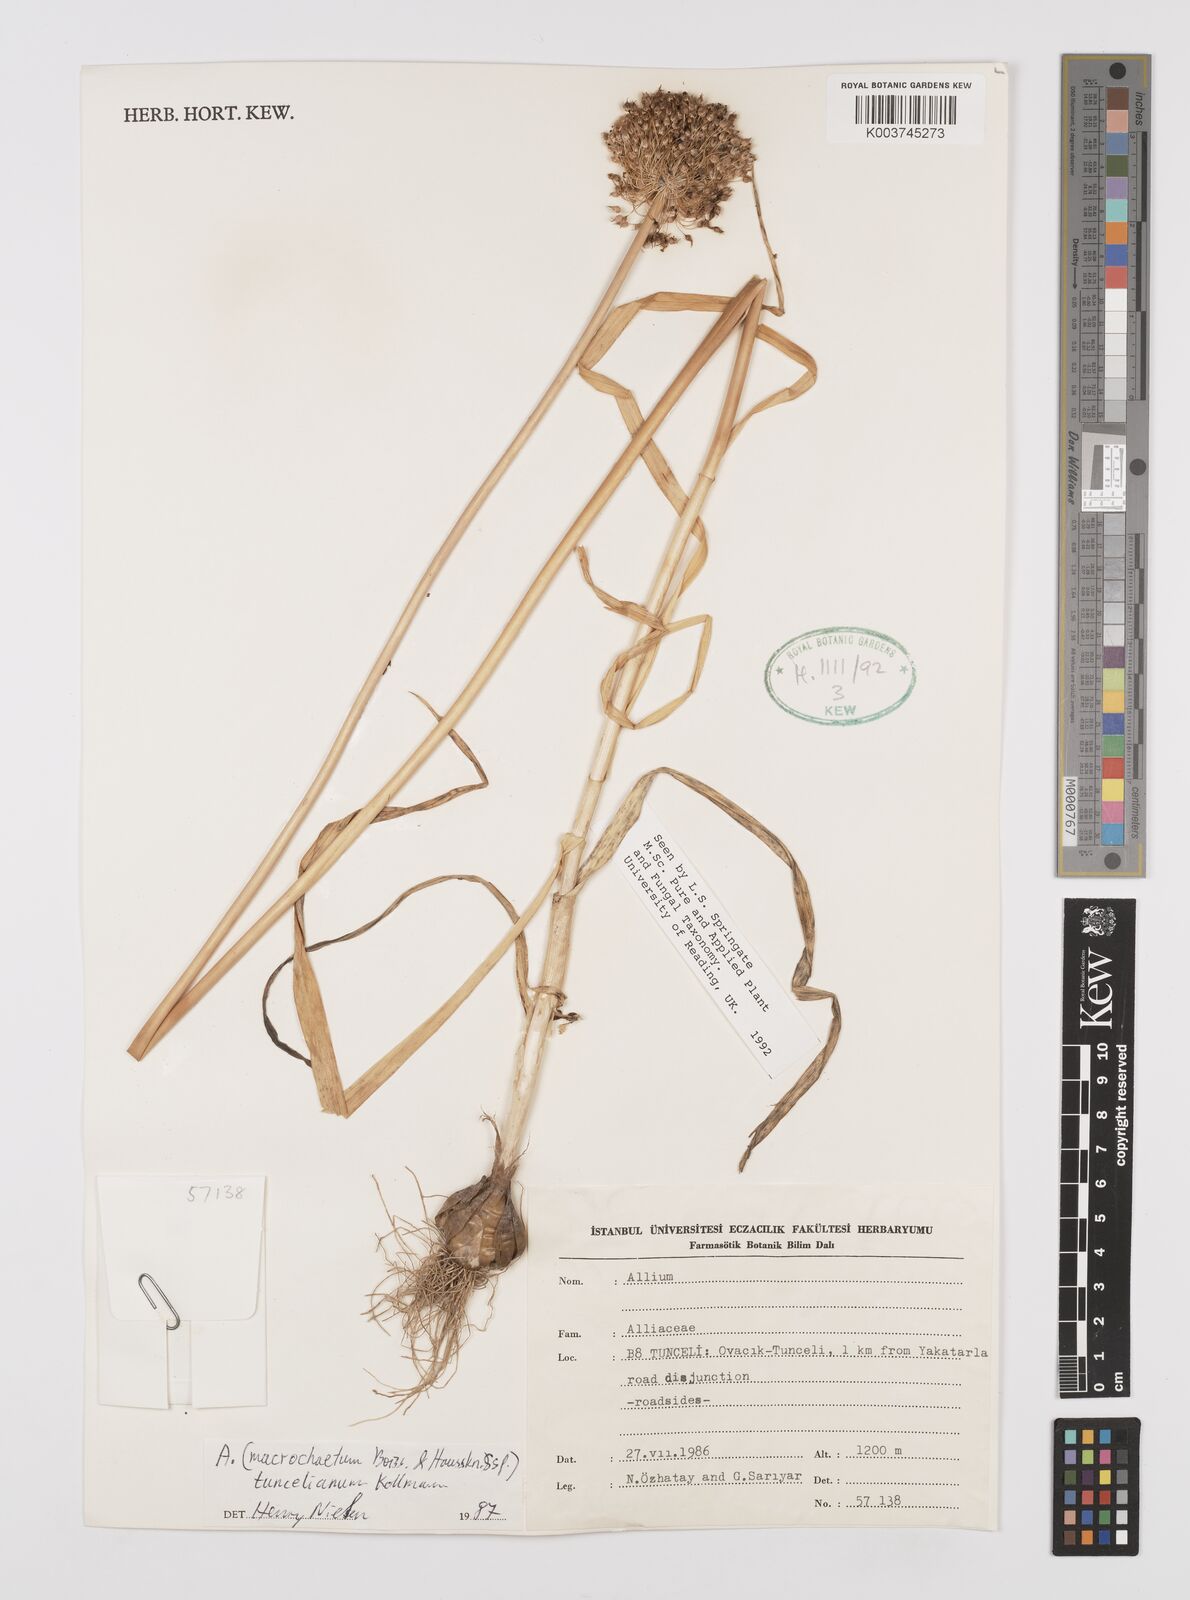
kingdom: Plantae
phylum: Tracheophyta
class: Liliopsida
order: Asparagales
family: Amaryllidaceae
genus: Allium
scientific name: Allium tuncelianum
